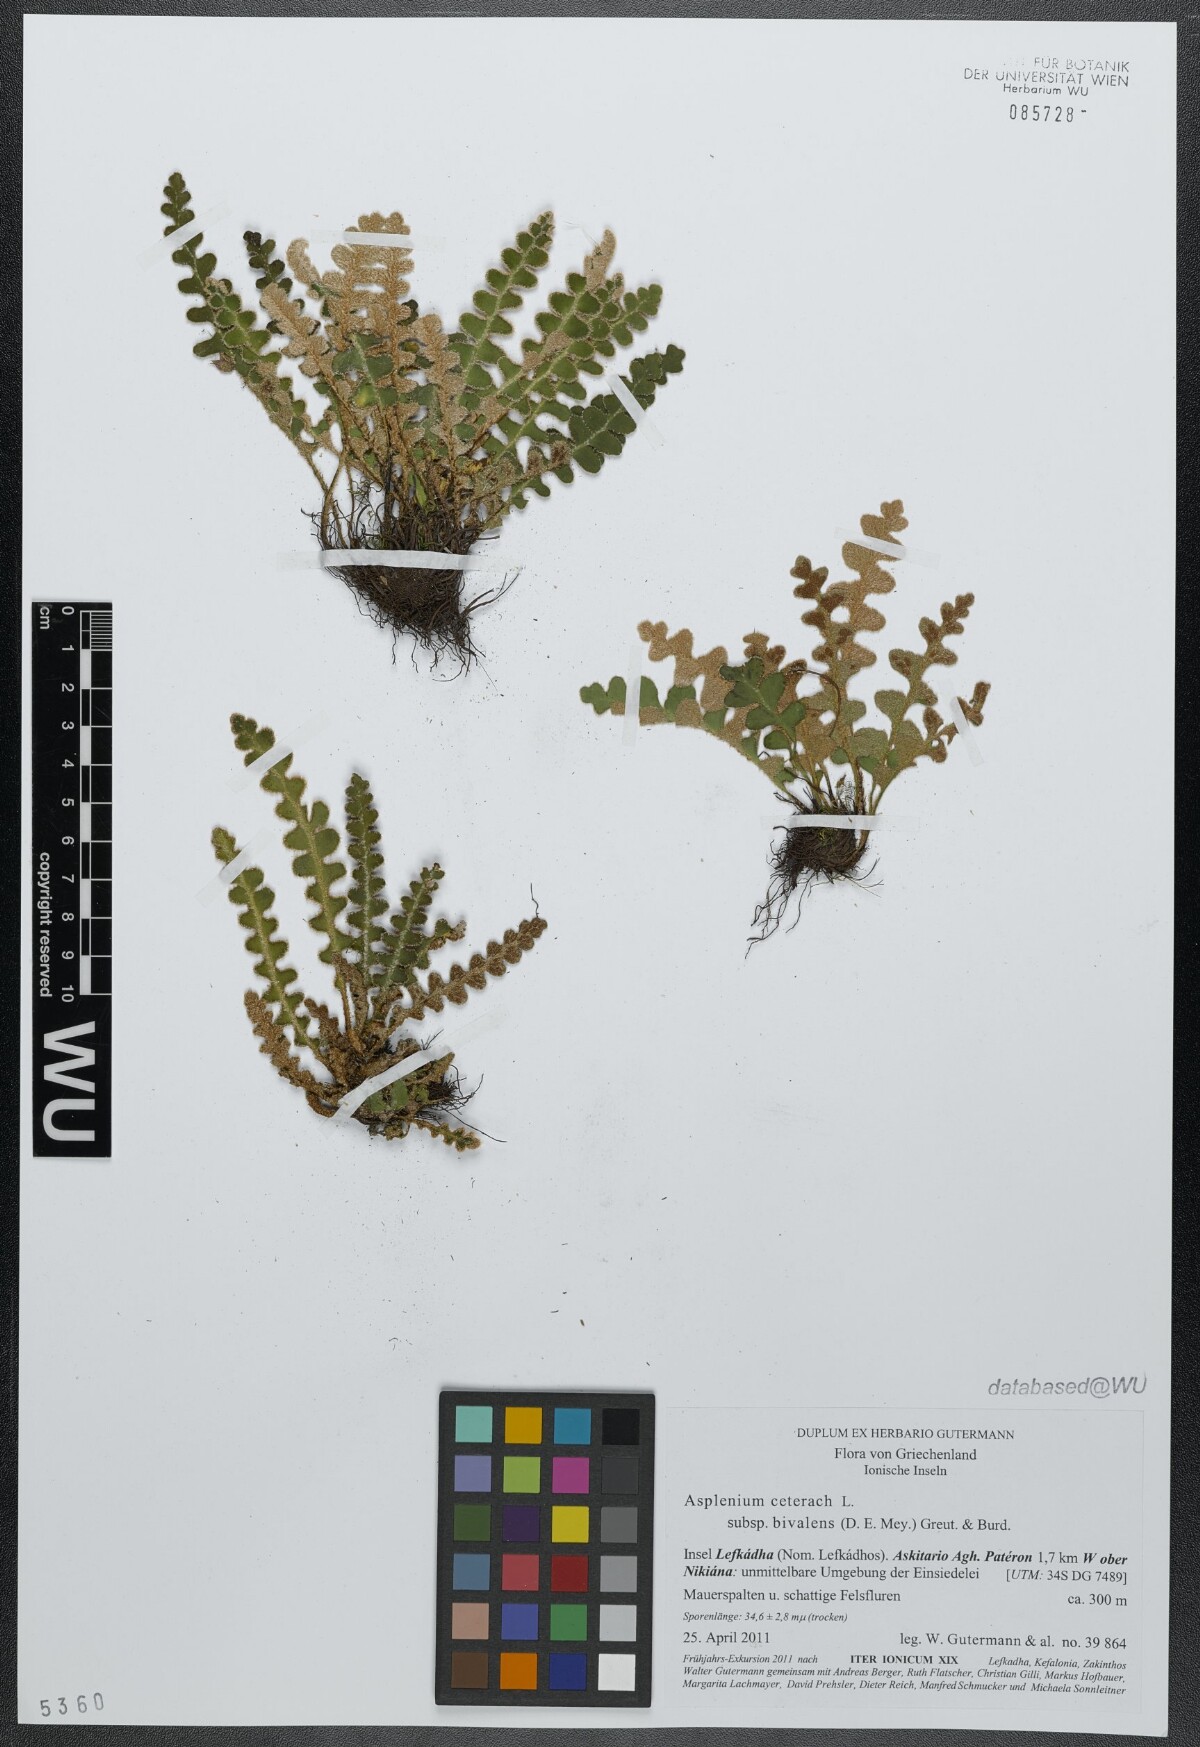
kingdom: Plantae
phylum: Tracheophyta
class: Polypodiopsida
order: Polypodiales
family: Aspleniaceae
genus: Asplenium
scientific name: Asplenium ceterach
